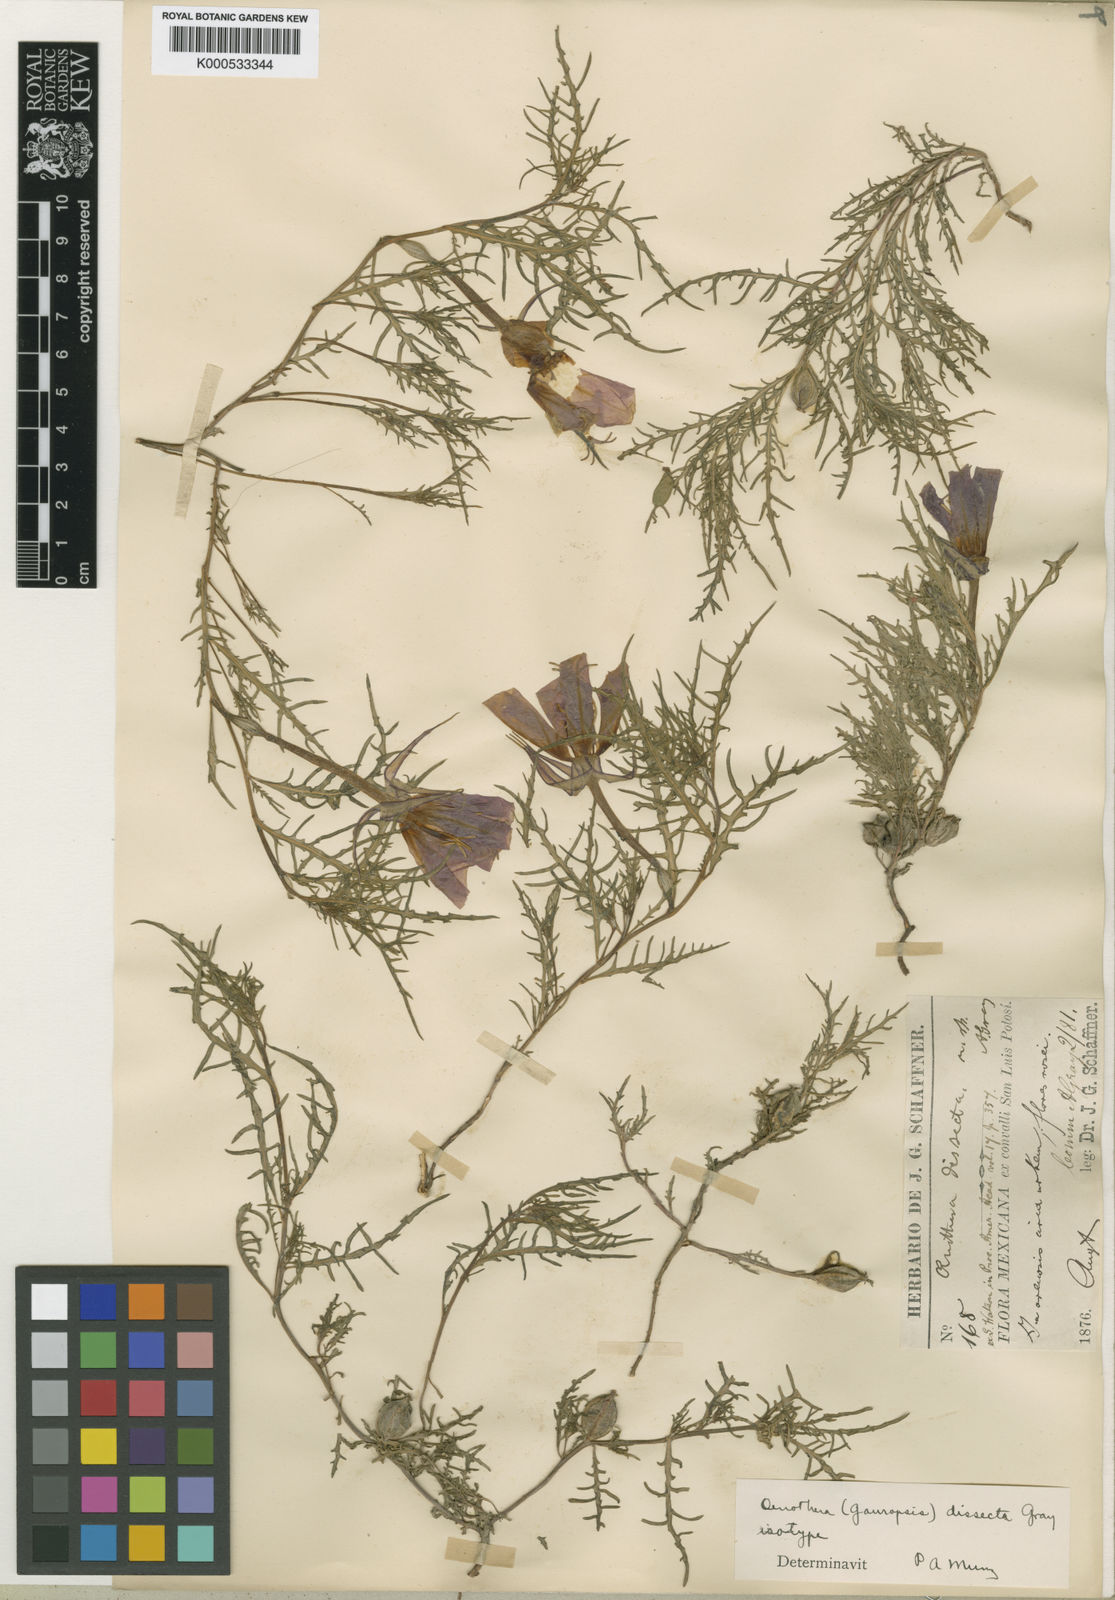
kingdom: Plantae
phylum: Tracheophyta
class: Magnoliopsida
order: Myrtales
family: Onagraceae
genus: Oenothera
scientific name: Oenothera
